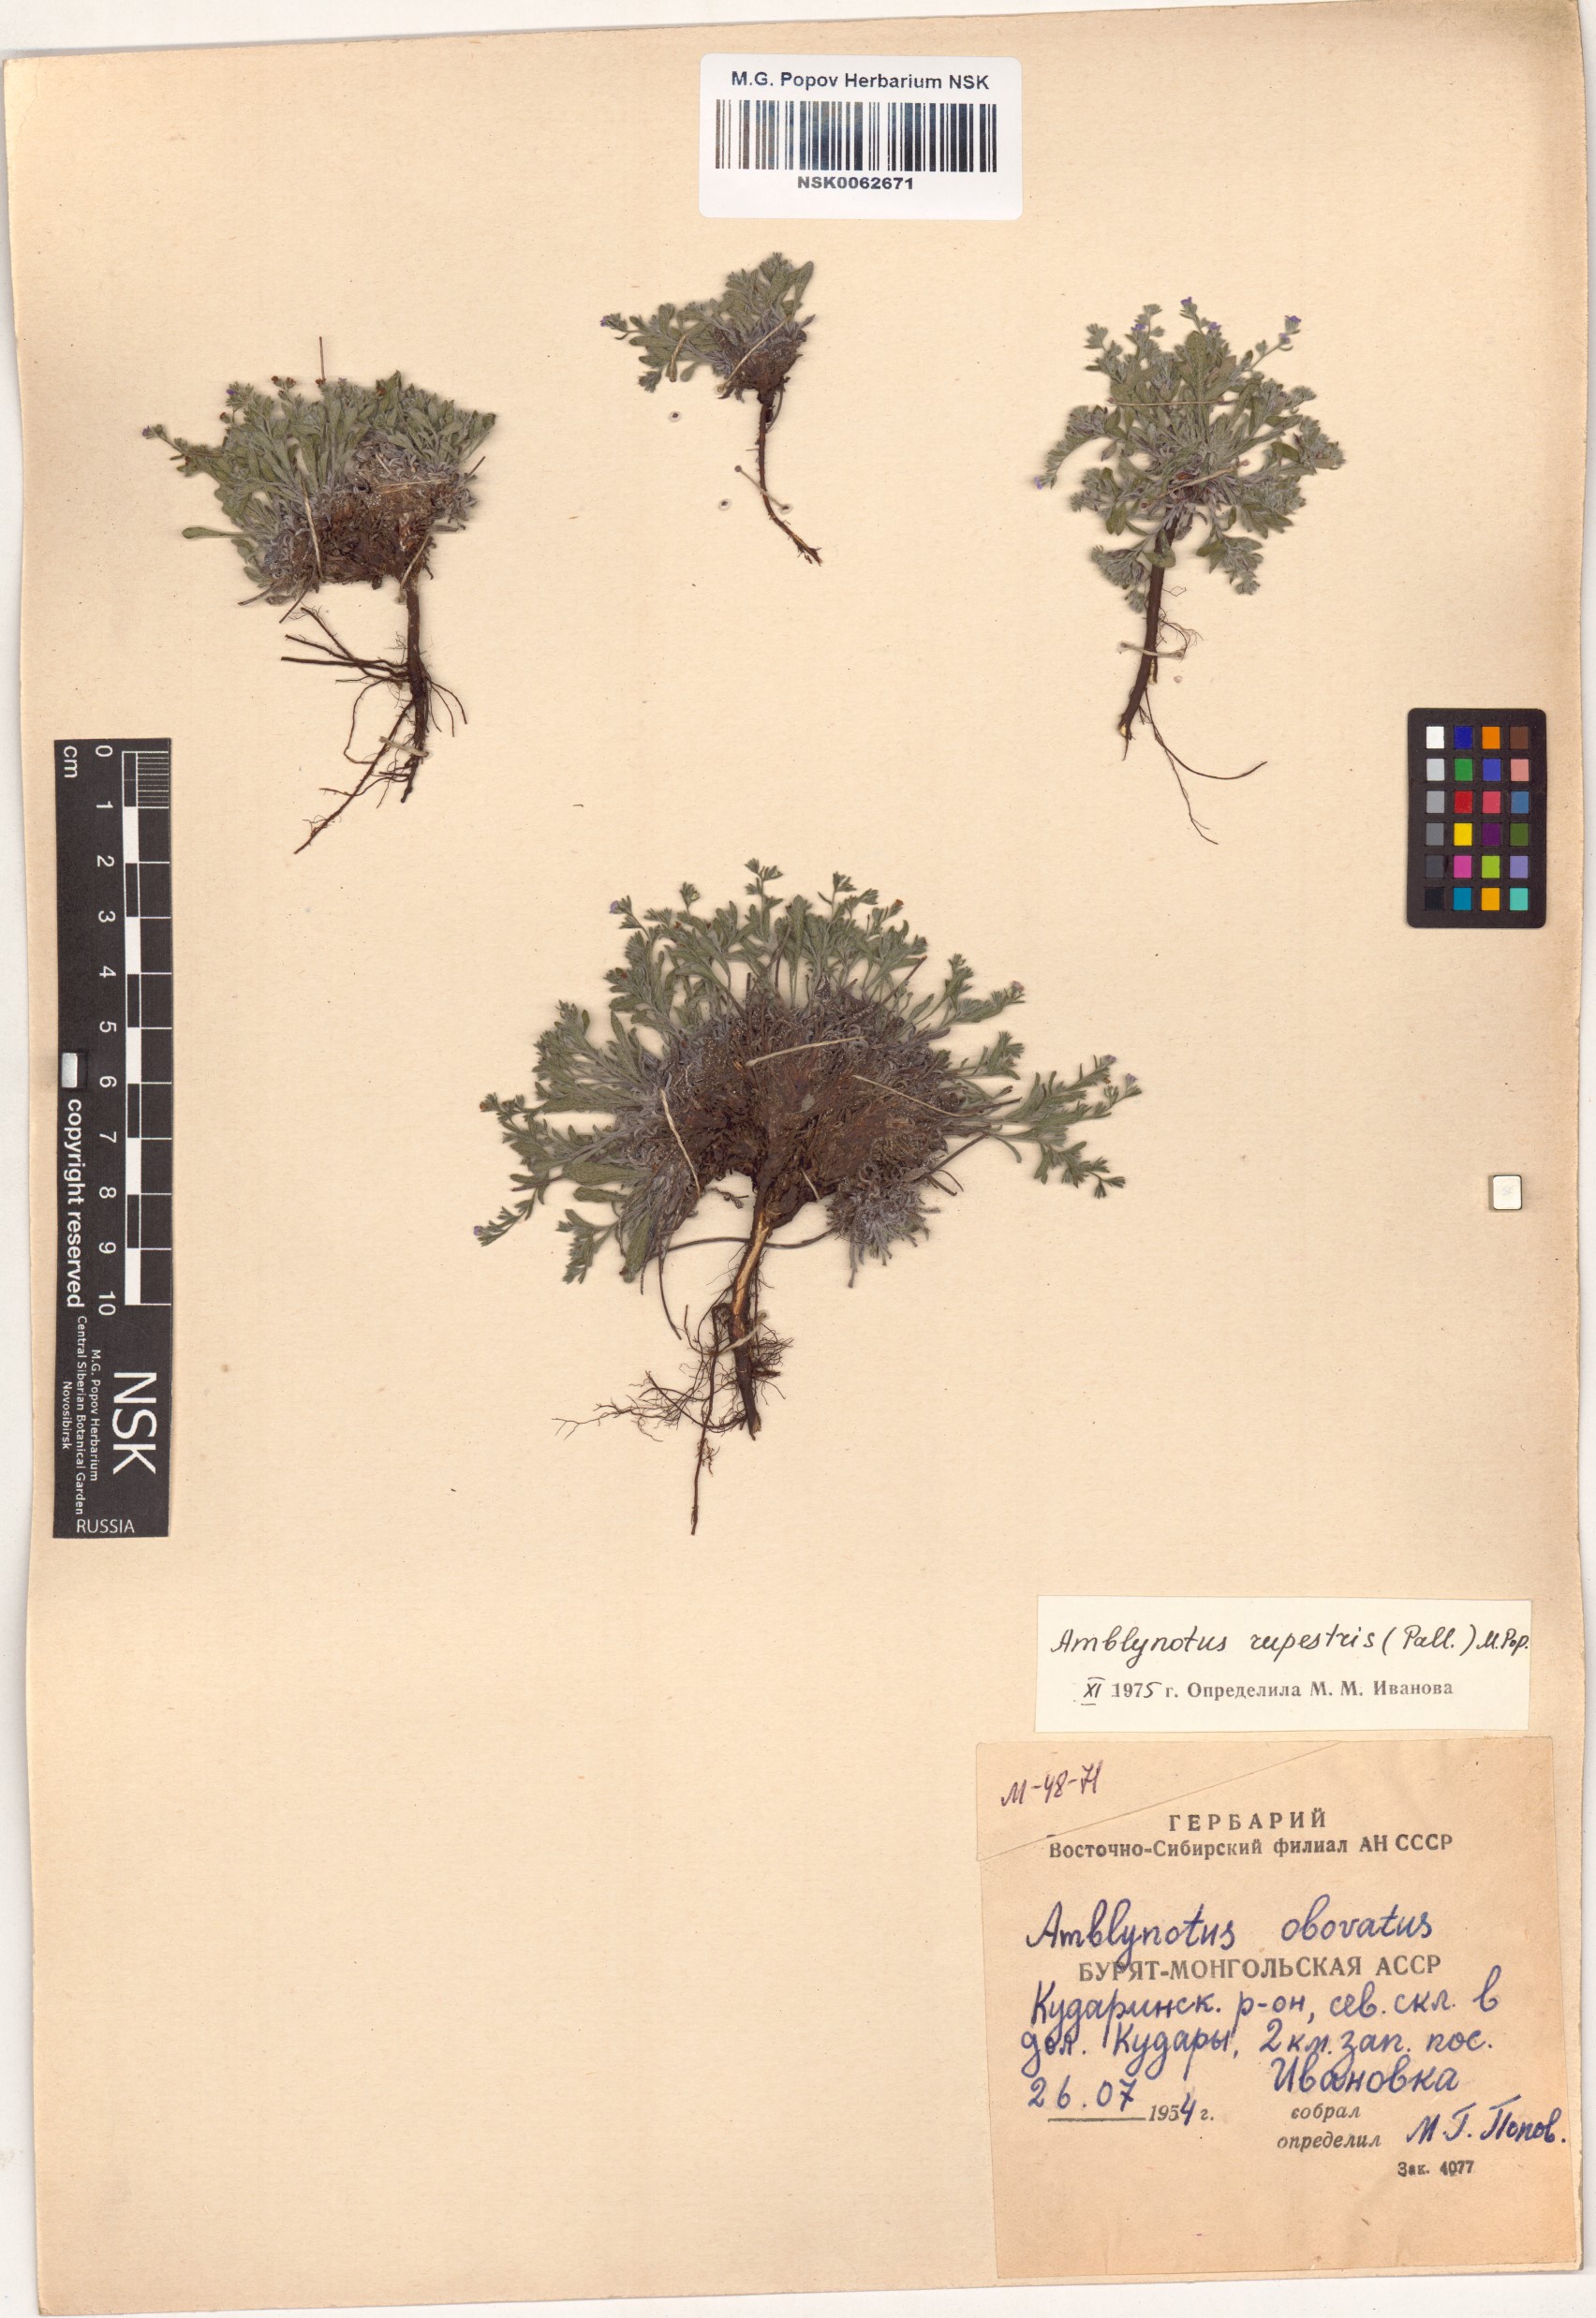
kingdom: Plantae
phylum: Tracheophyta
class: Magnoliopsida
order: Boraginales
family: Boraginaceae
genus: Eritrichium
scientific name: Eritrichium rupestre
